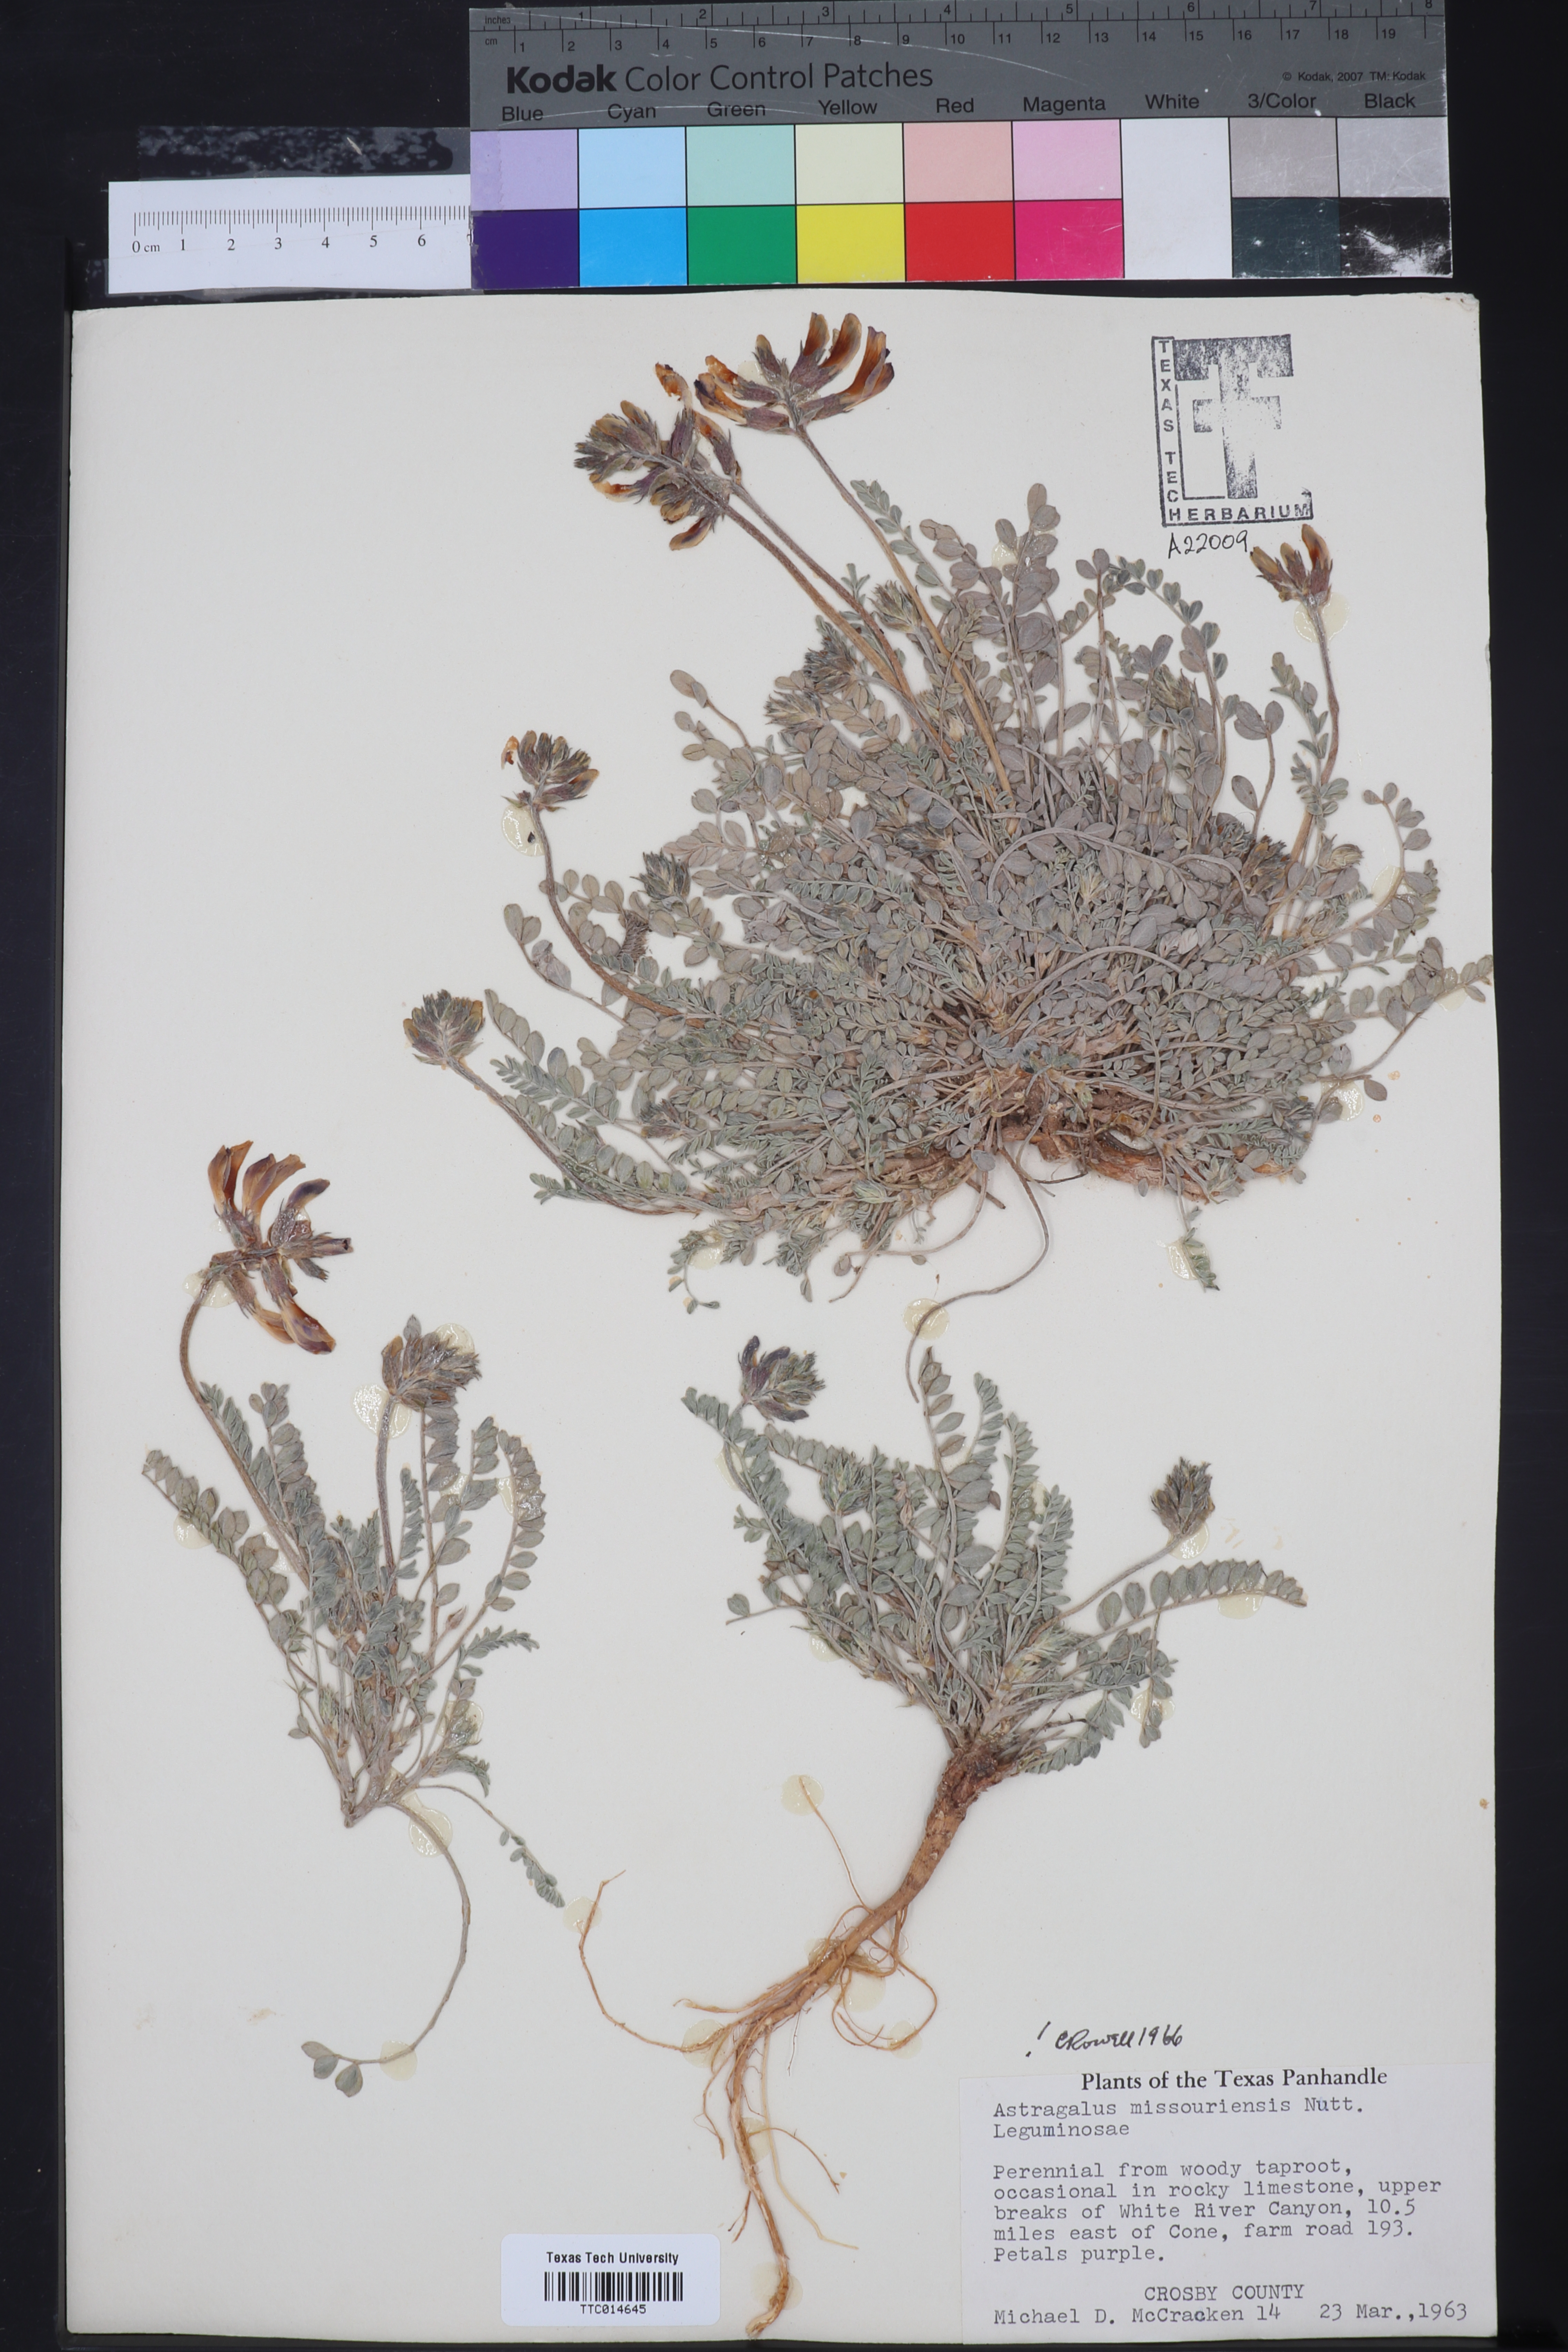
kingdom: Plantae
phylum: Tracheophyta
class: Magnoliopsida
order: Fabales
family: Fabaceae
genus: Astragalus
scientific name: Astragalus missouriensis
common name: Missouri milk-vetch
